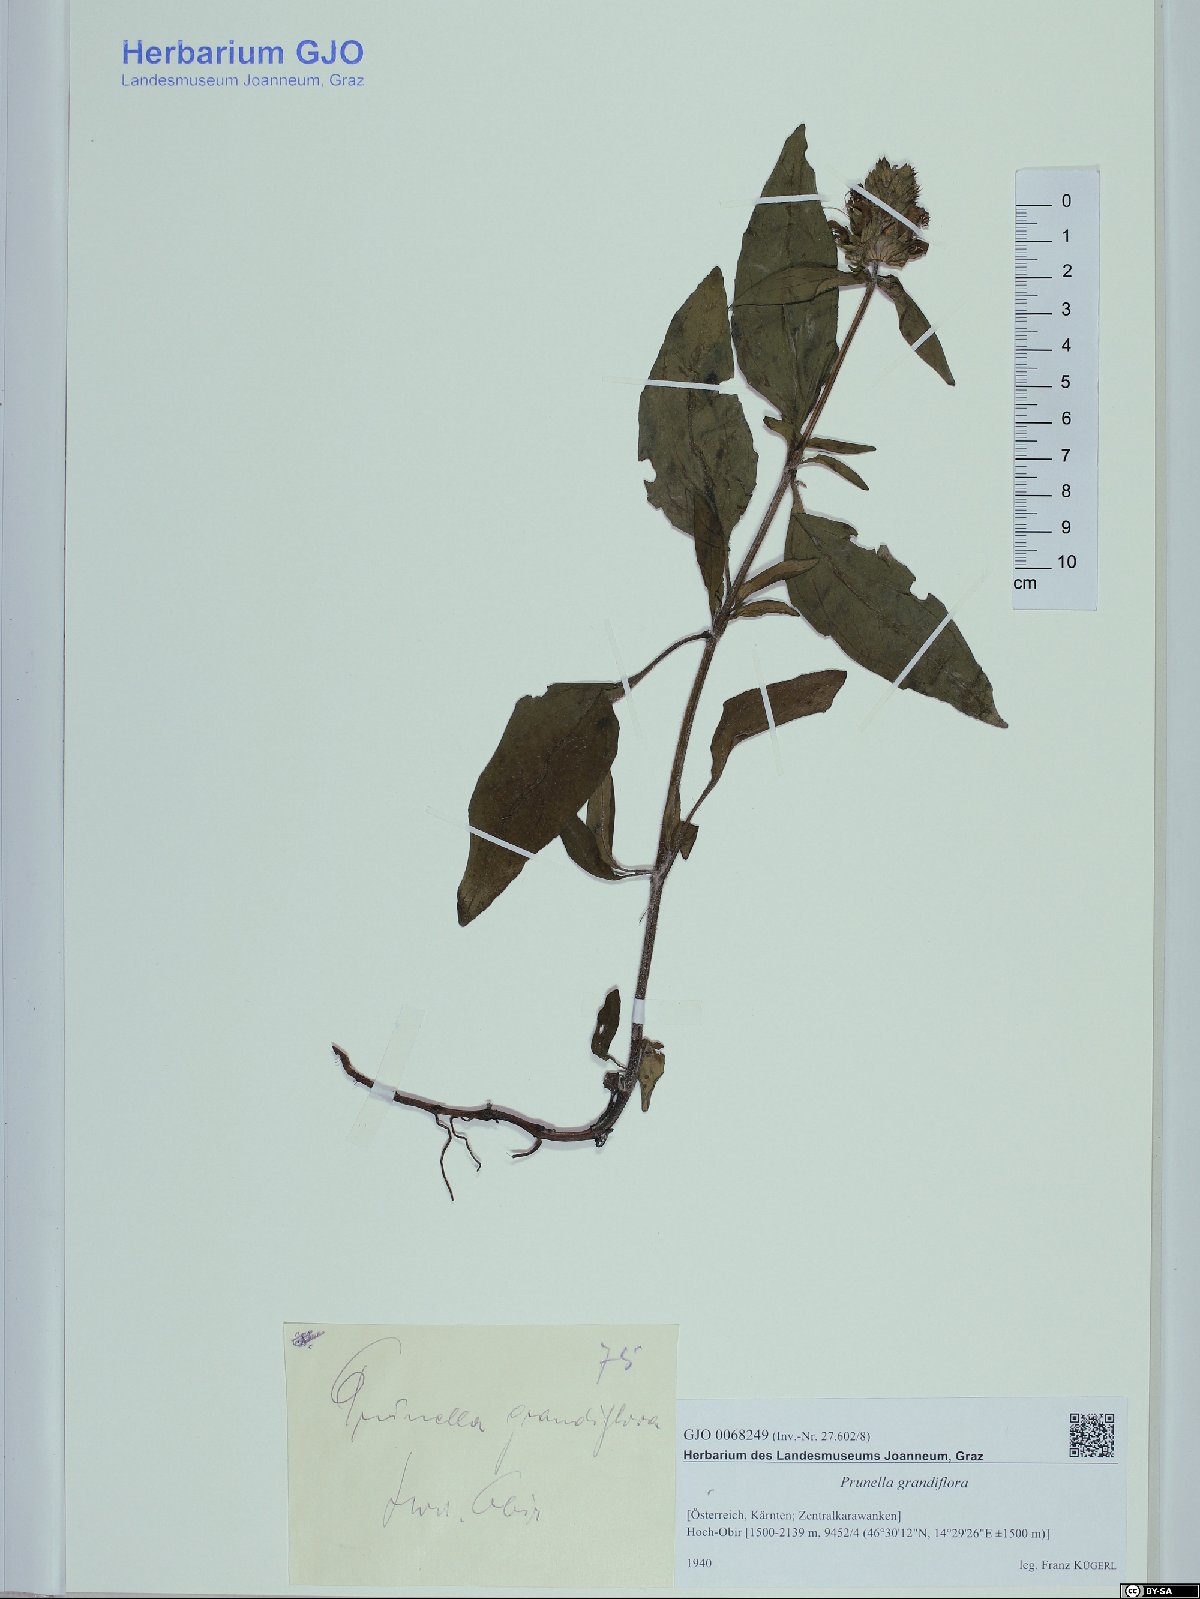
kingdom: Plantae
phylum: Tracheophyta
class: Magnoliopsida
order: Lamiales
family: Lamiaceae
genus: Prunella
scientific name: Prunella grandiflora
